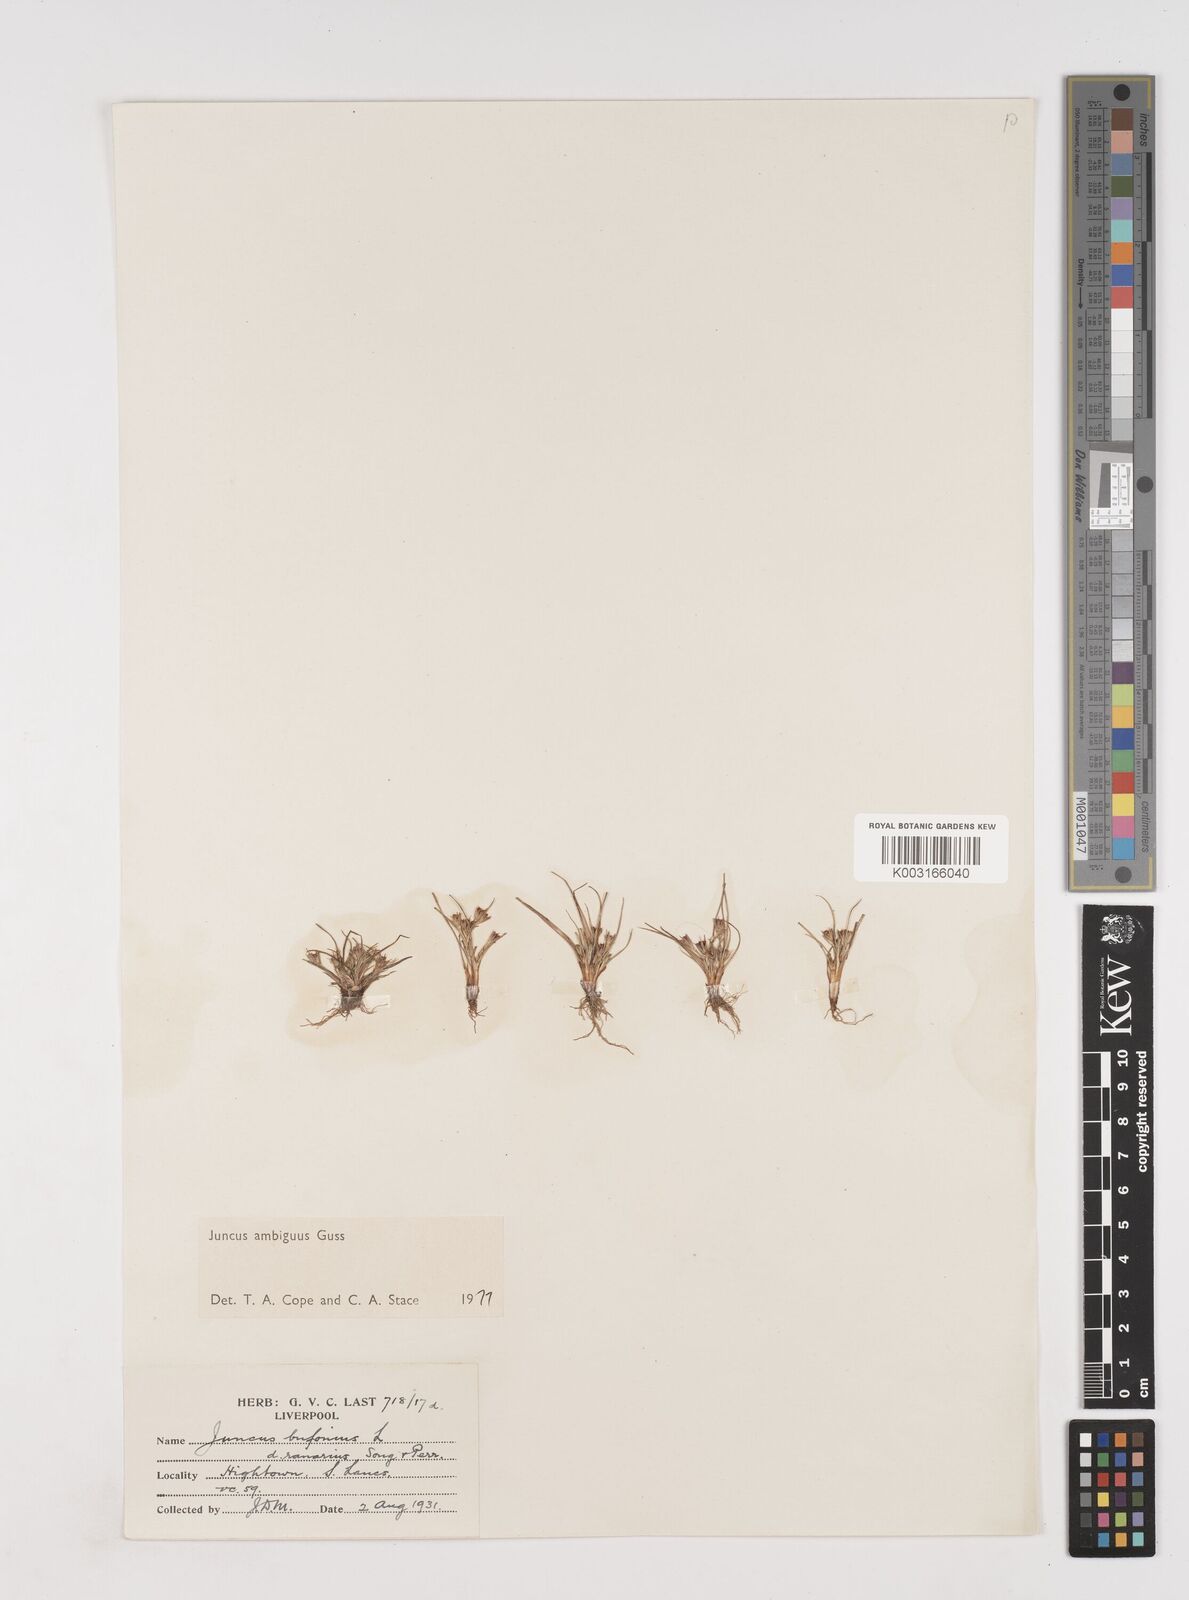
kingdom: Plantae
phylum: Tracheophyta
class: Liliopsida
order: Poales
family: Juncaceae
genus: Juncus
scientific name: Juncus hybridus
